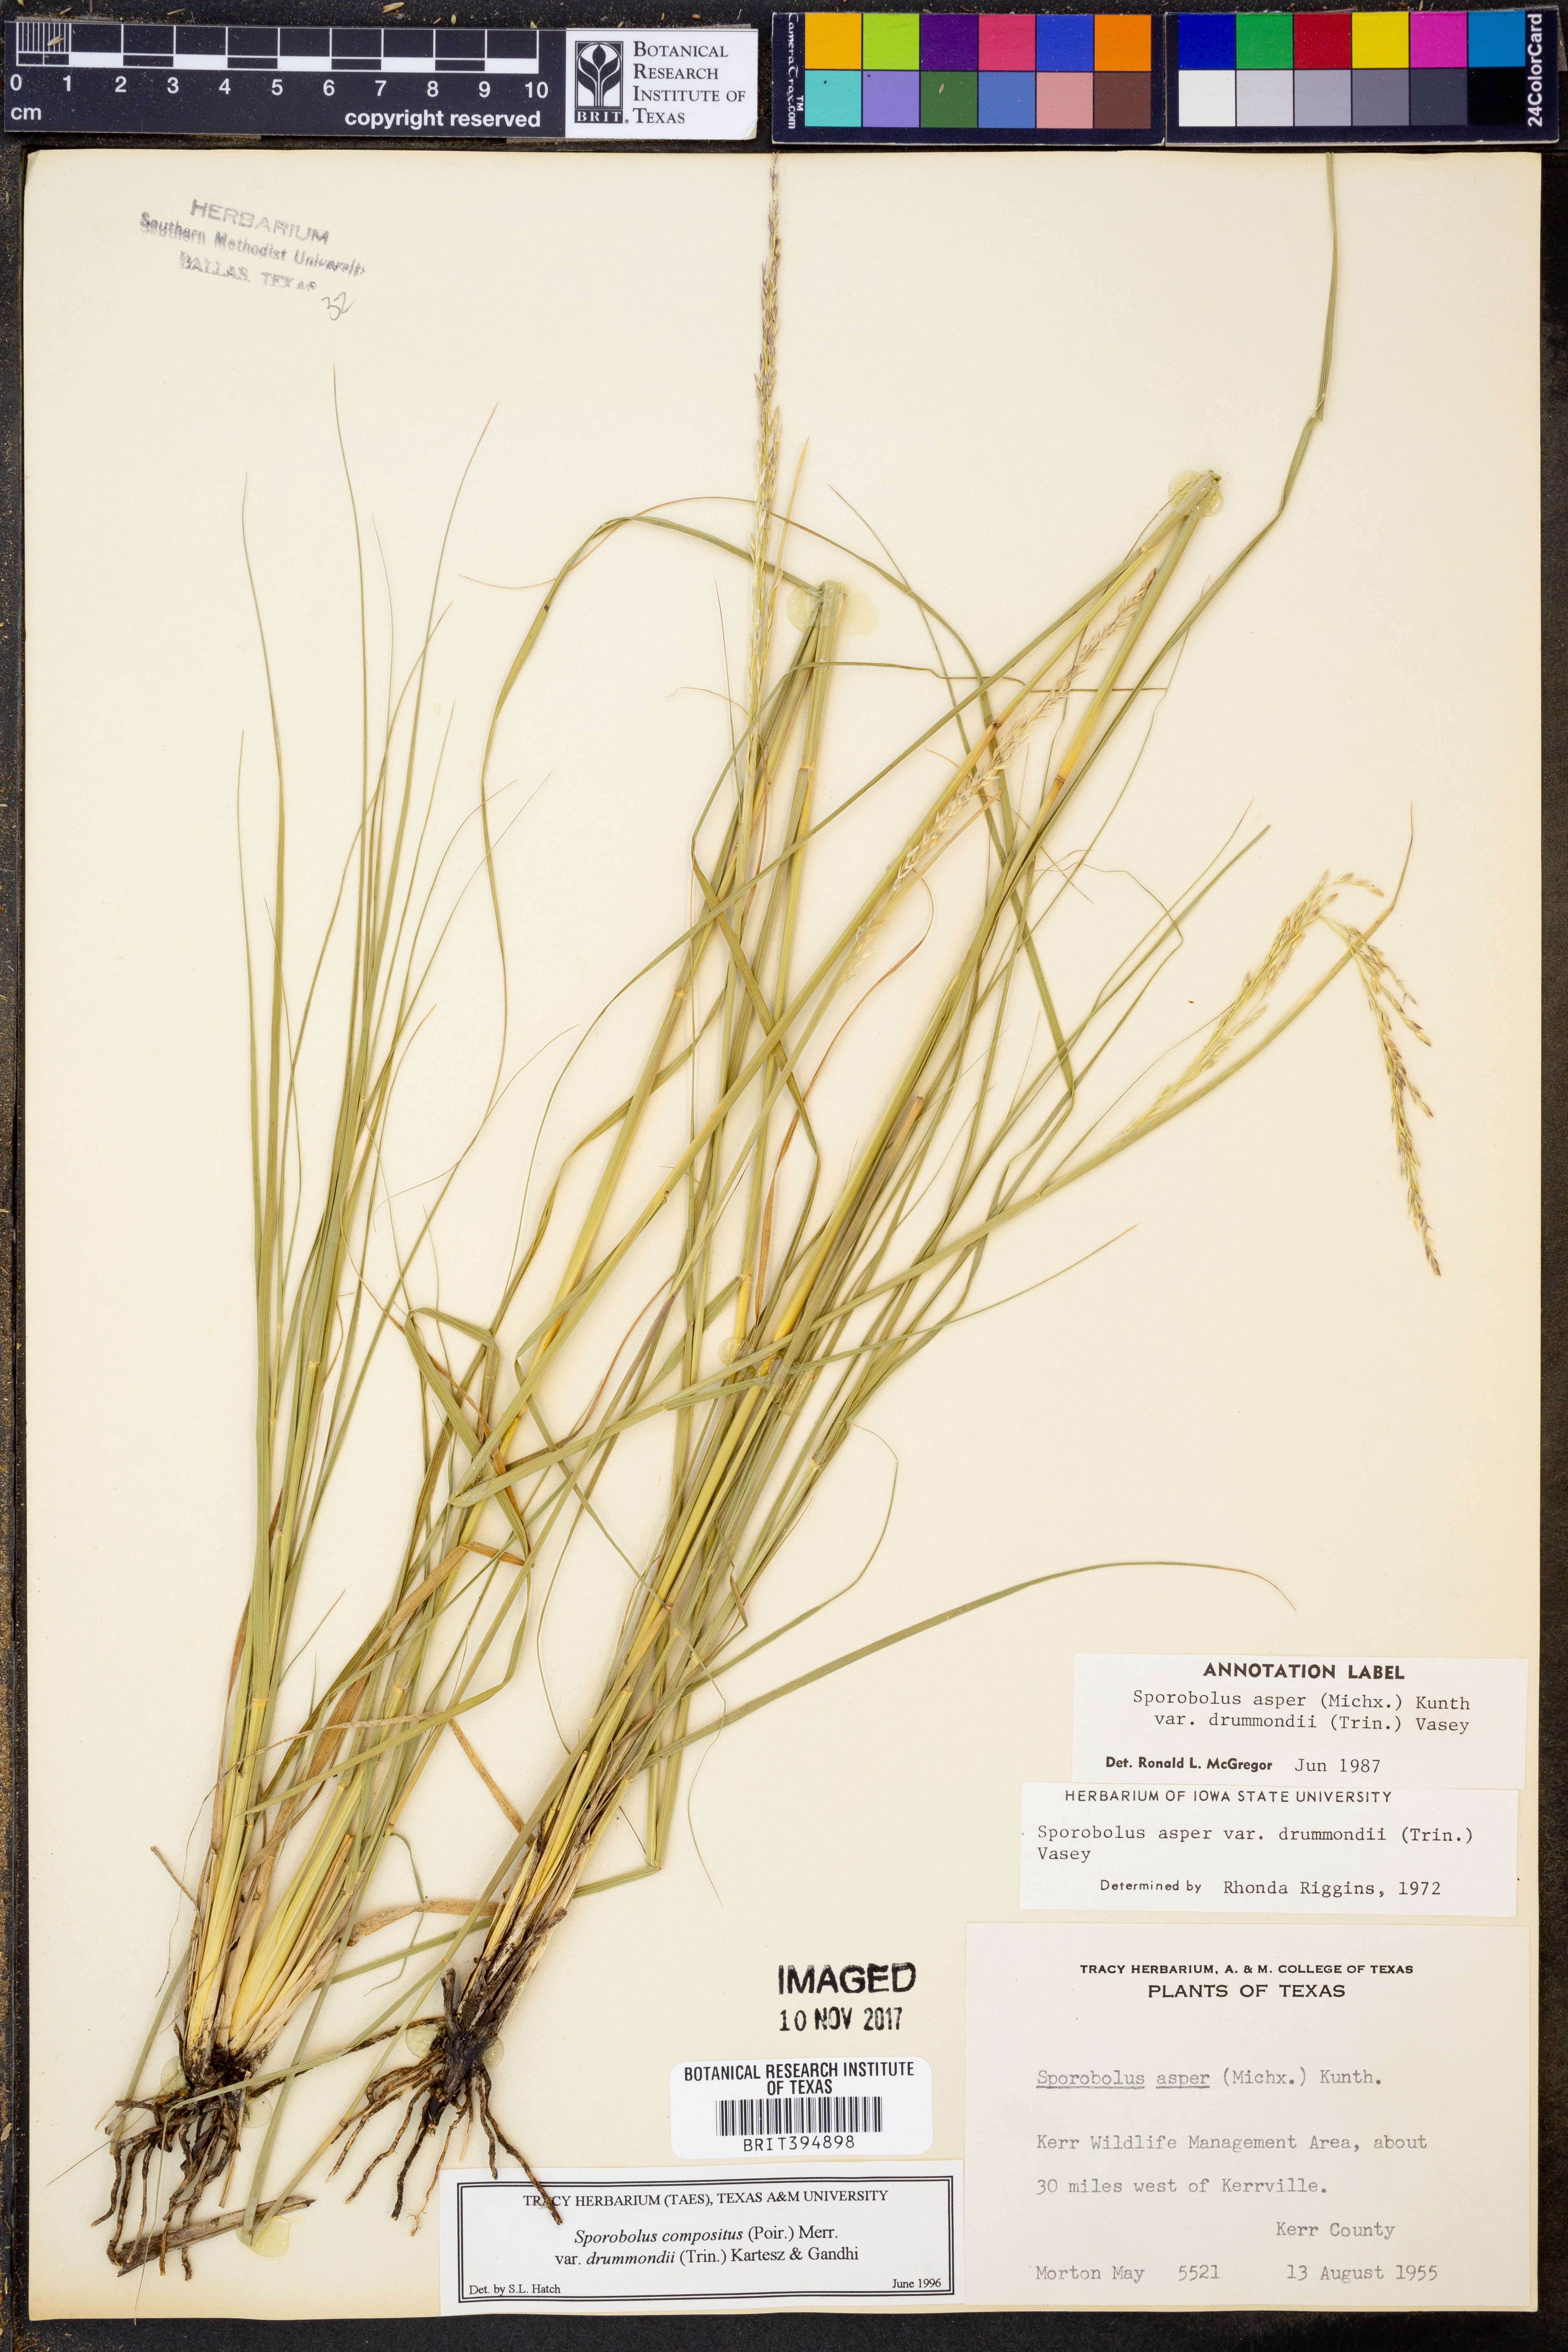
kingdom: Plantae
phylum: Tracheophyta
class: Liliopsida
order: Poales
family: Poaceae
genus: Sporobolus
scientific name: Sporobolus compositus
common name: Rough dropseed
